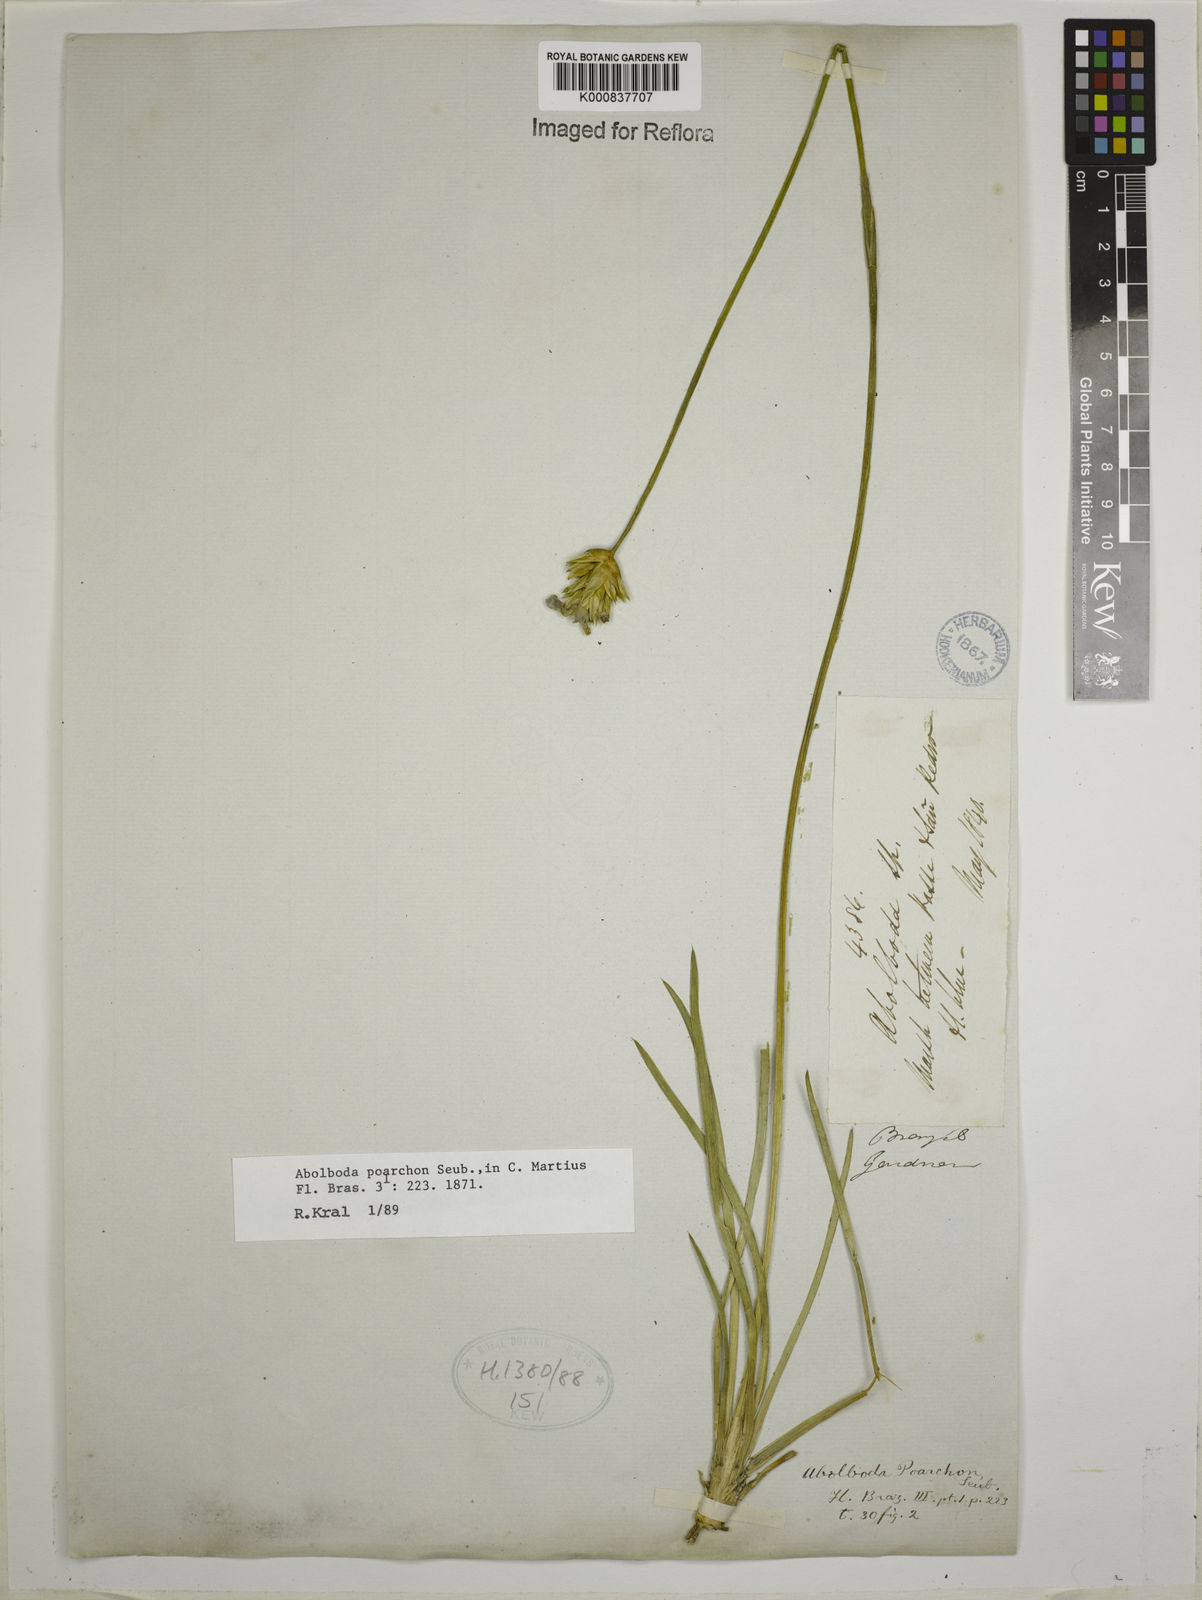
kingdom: Plantae
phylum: Tracheophyta
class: Liliopsida
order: Poales
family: Xyridaceae
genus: Abolboda
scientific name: Abolboda poarchon
